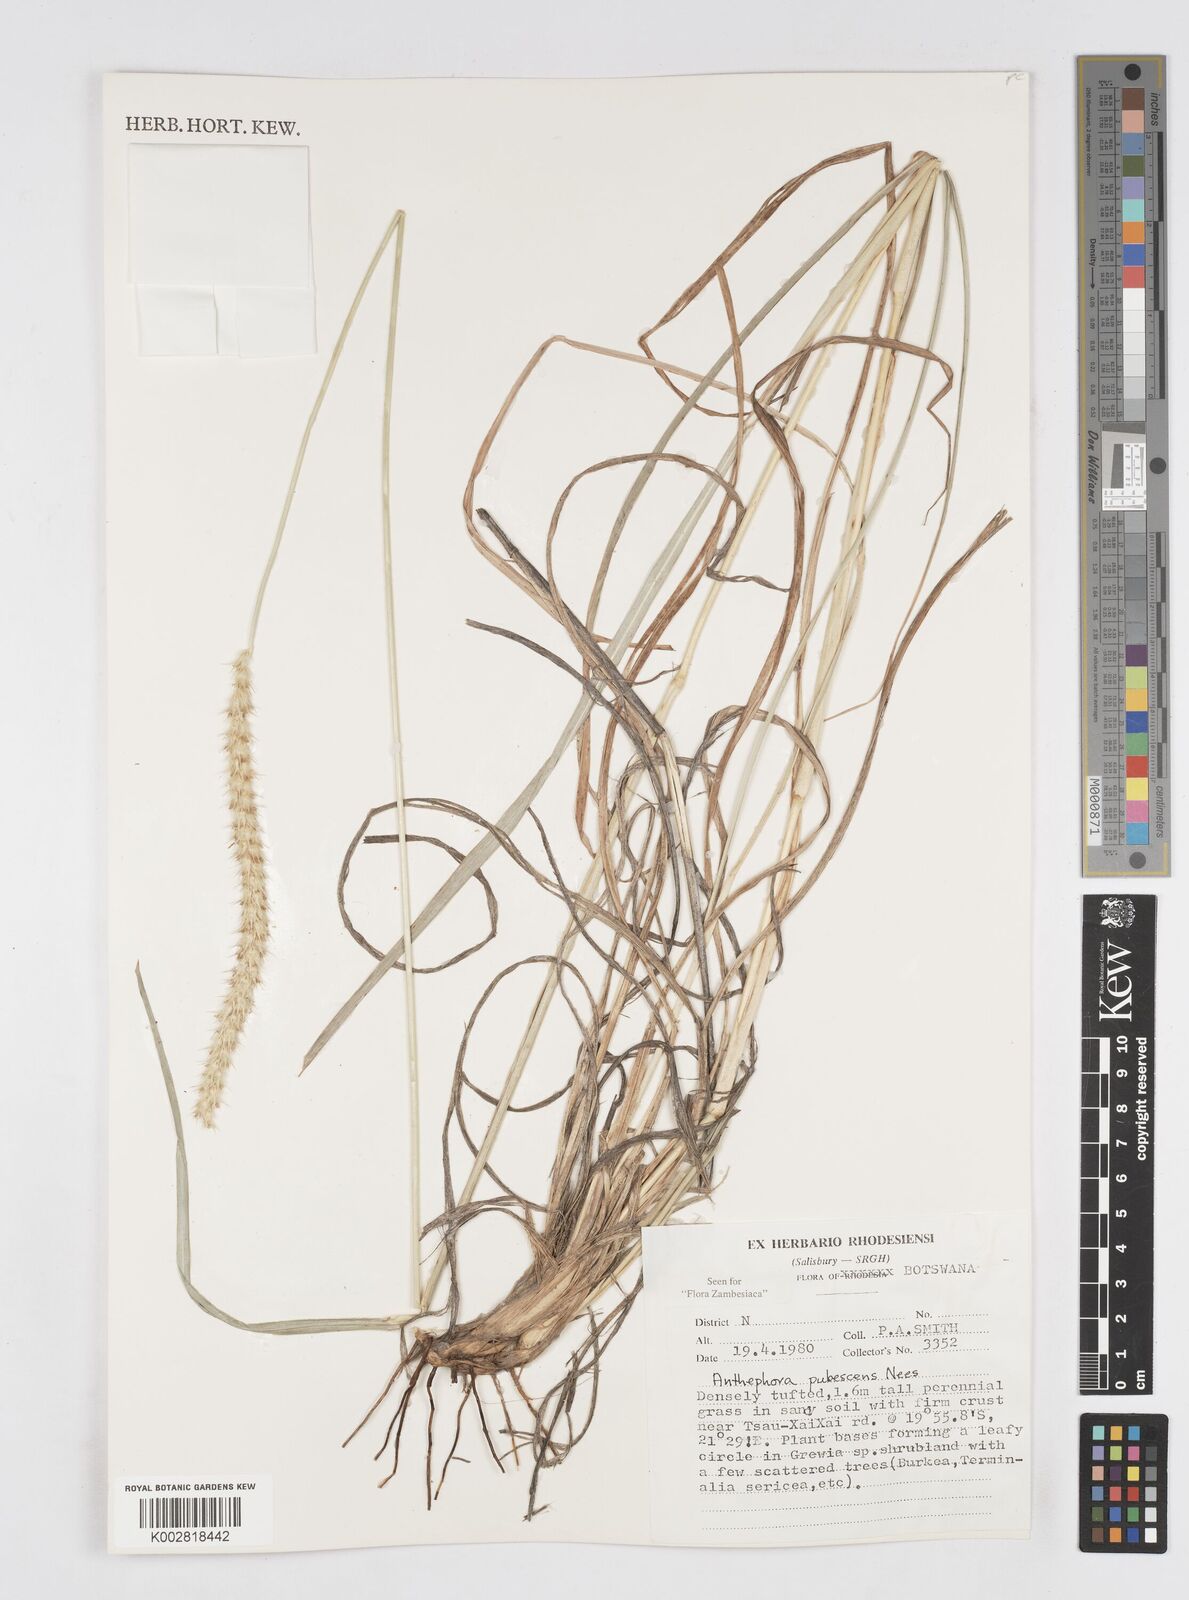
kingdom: Plantae
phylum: Tracheophyta
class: Liliopsida
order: Poales
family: Poaceae
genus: Anthephora
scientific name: Anthephora pubescens
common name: Wool grass
